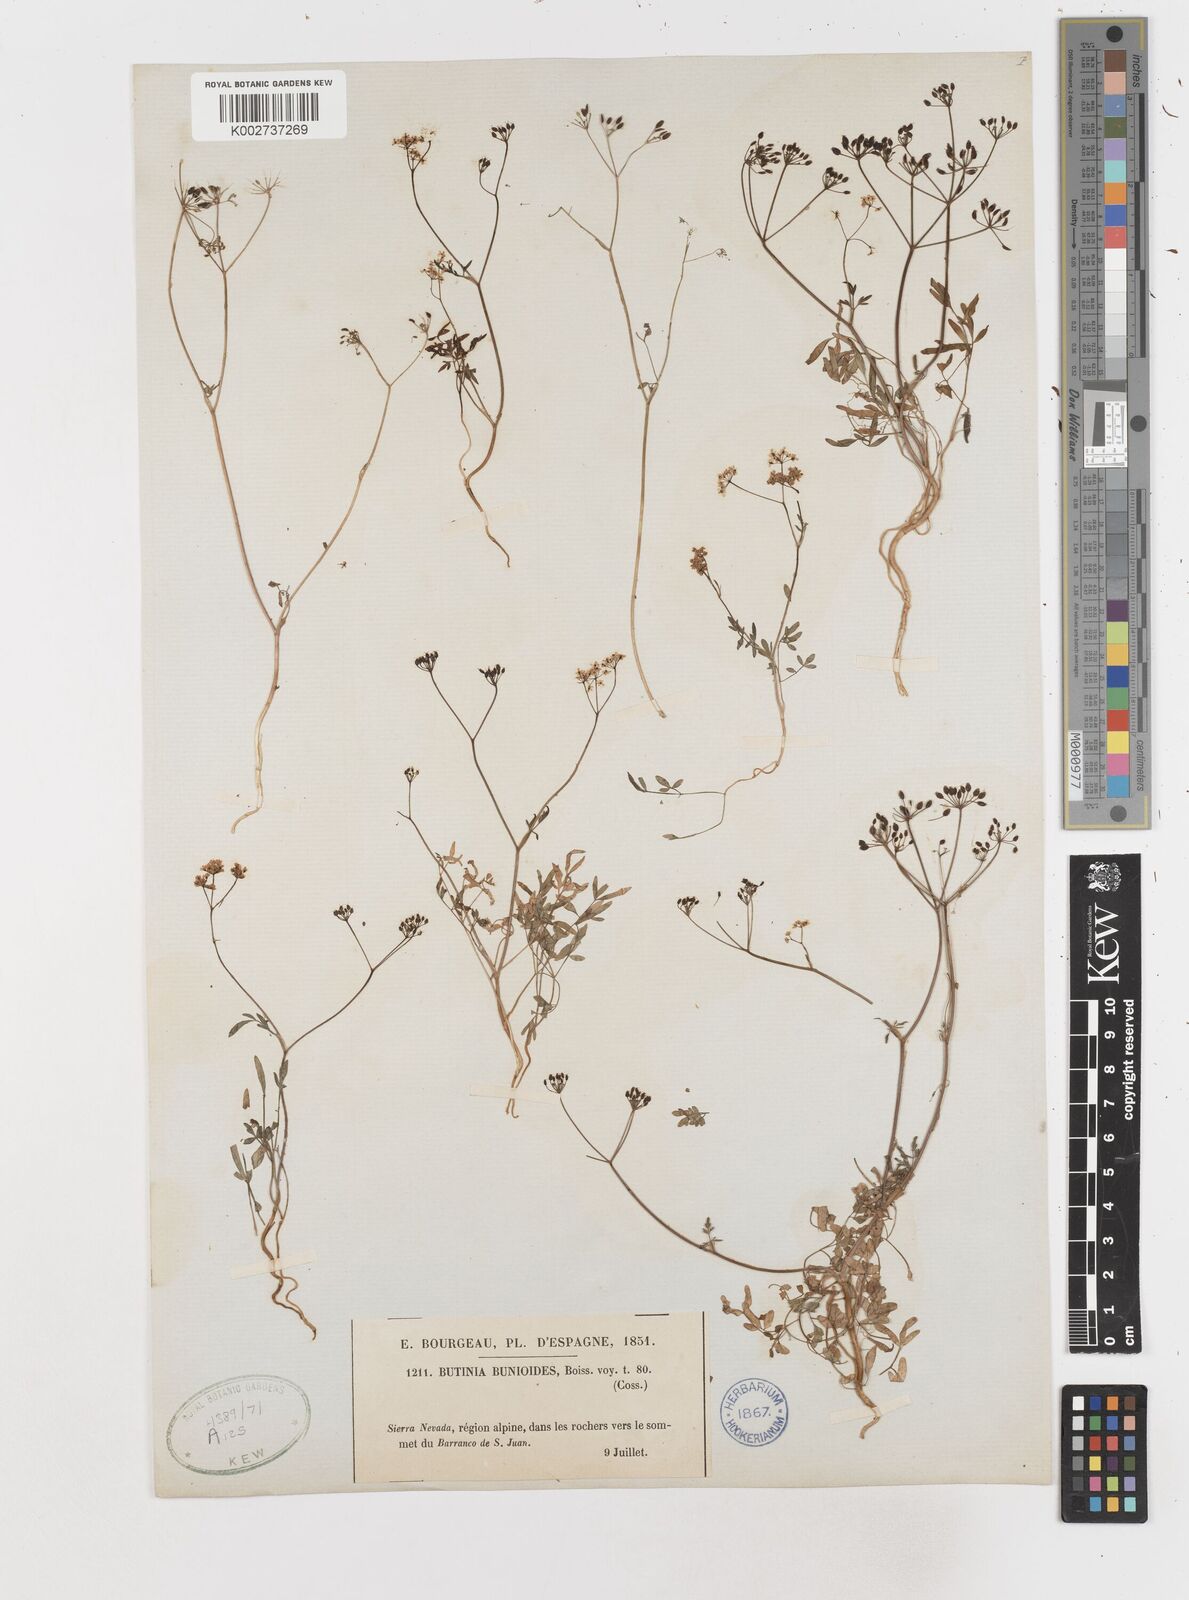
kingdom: Plantae
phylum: Tracheophyta
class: Magnoliopsida
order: Apiales
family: Apiaceae
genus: Conopodium
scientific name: Conopodium bunioides
